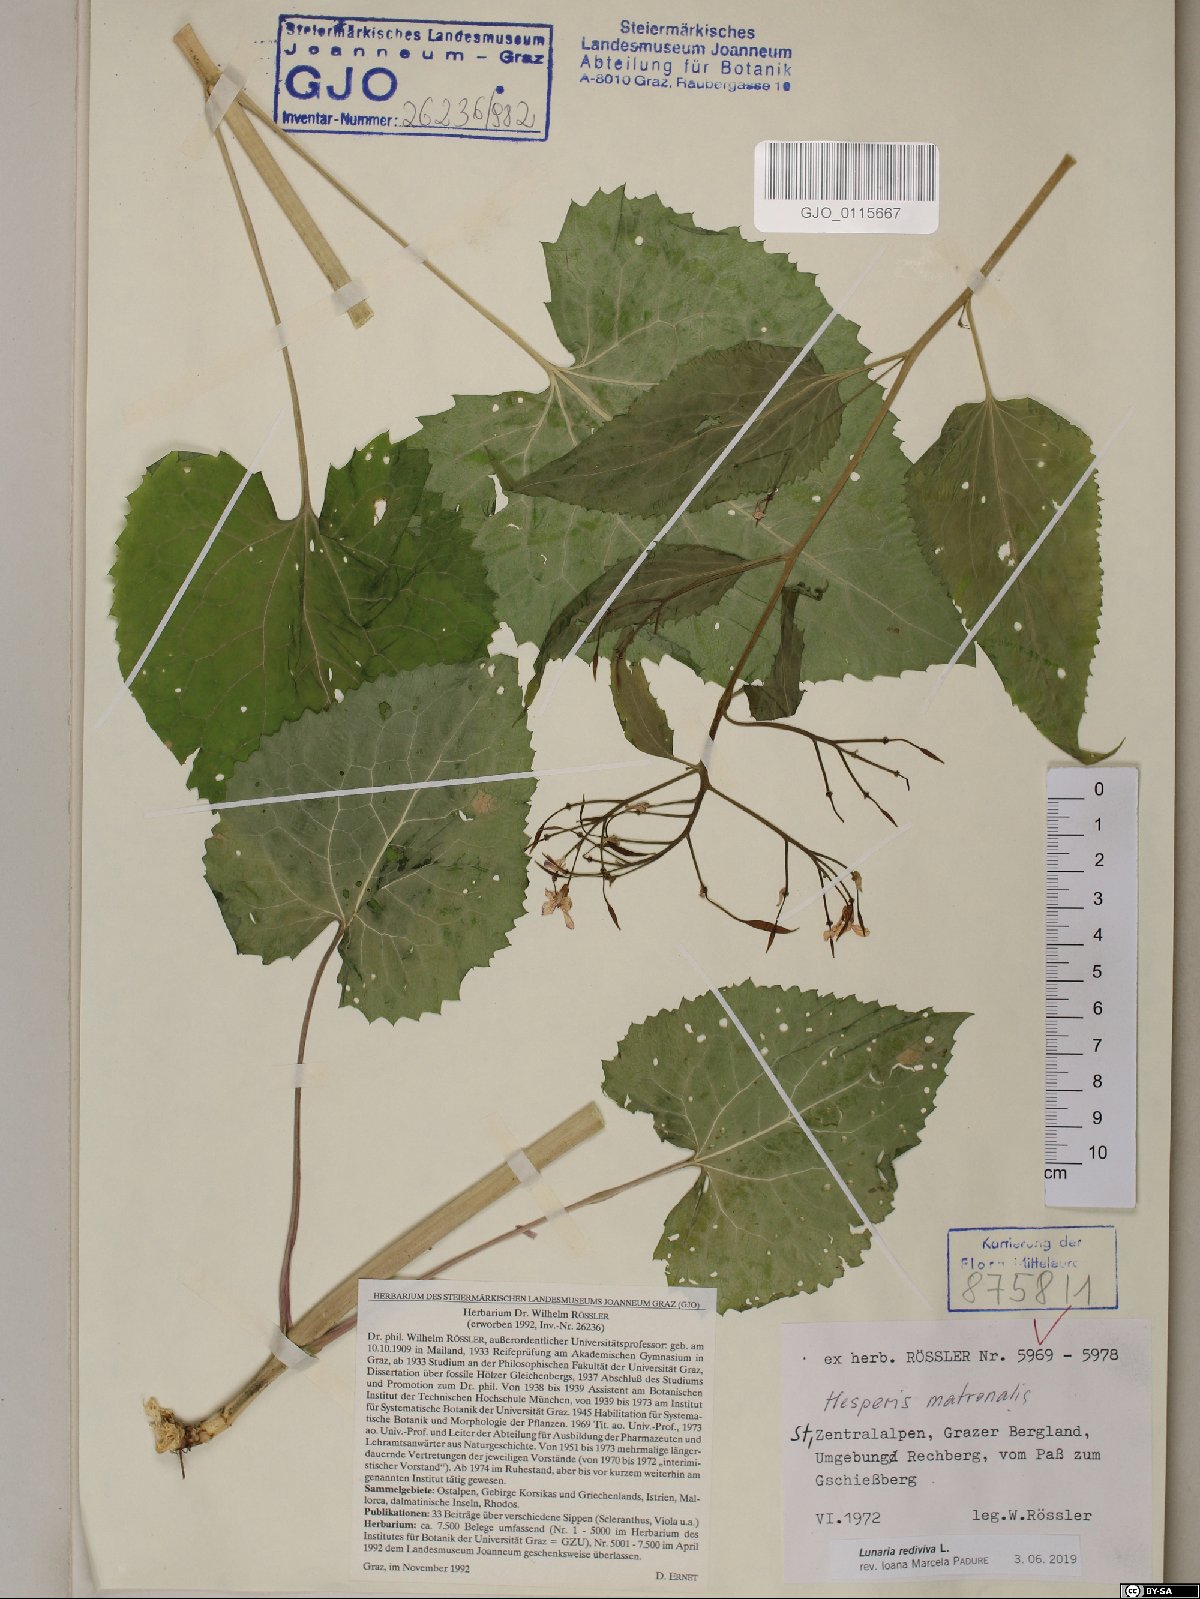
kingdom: Plantae
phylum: Tracheophyta
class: Magnoliopsida
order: Brassicales
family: Brassicaceae
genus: Lunaria
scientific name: Lunaria rediviva
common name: Perennial honesty
